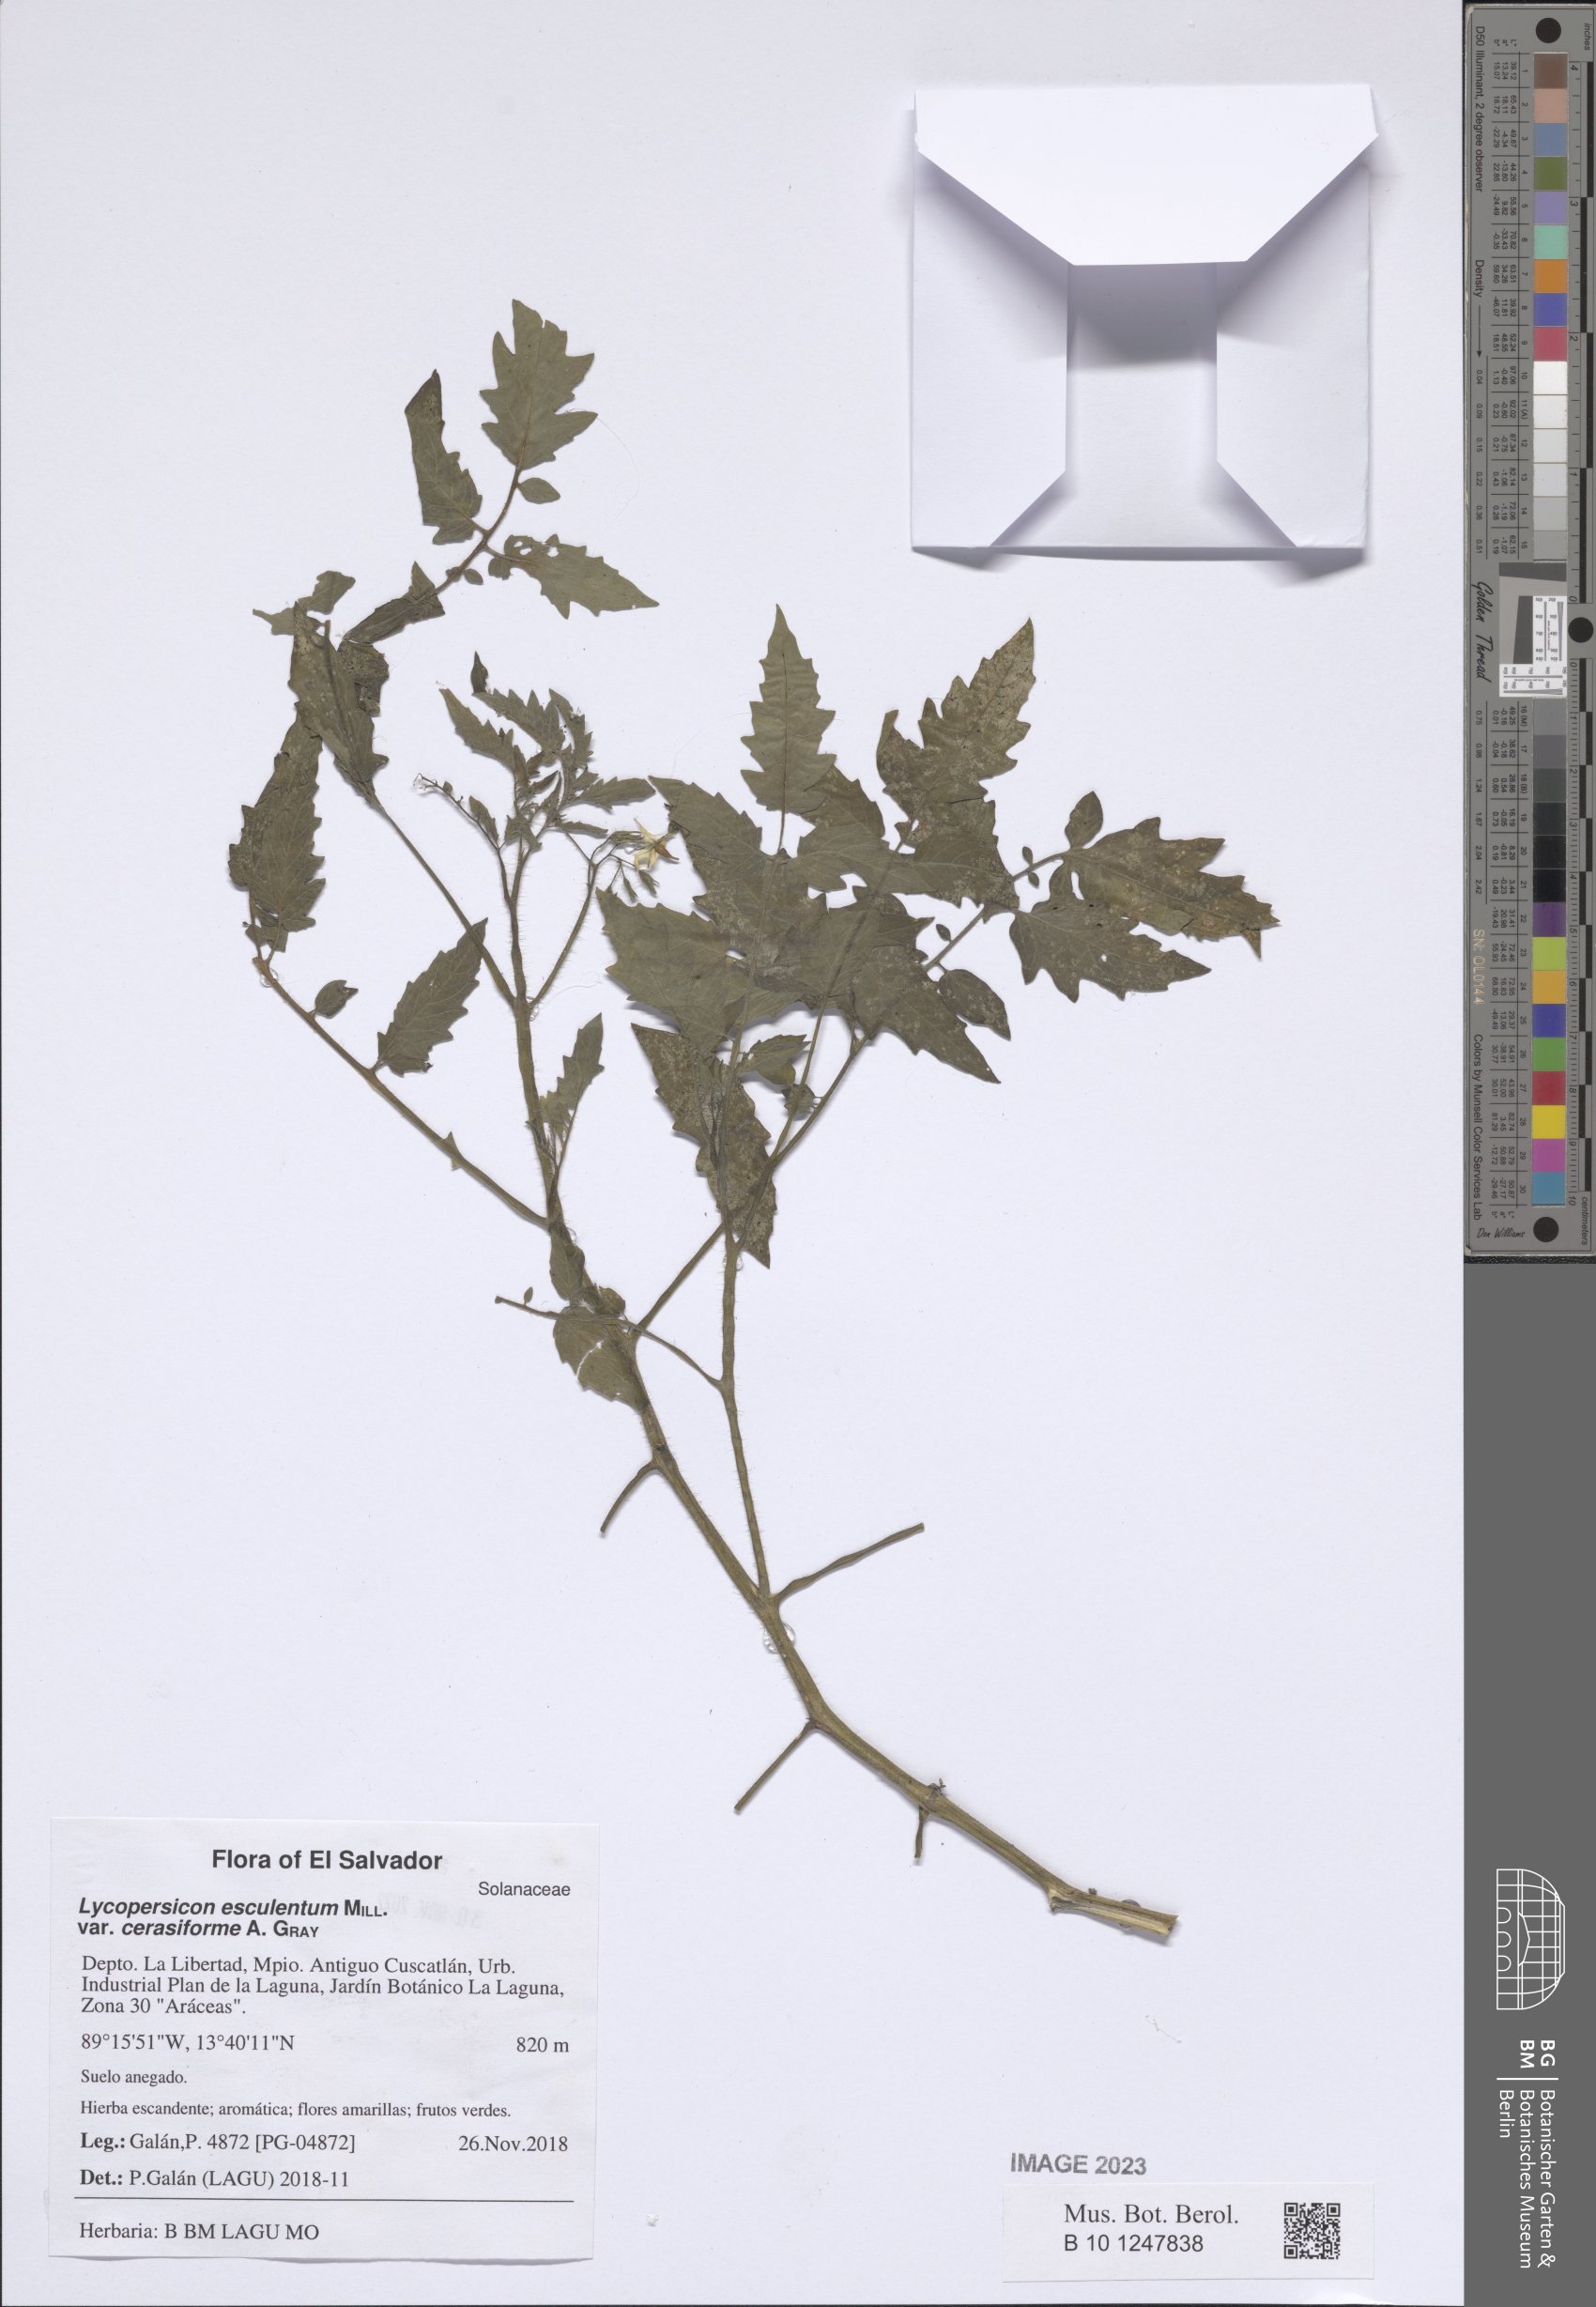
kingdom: Plantae
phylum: Tracheophyta
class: Magnoliopsida
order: Solanales
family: Solanaceae
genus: Solanum
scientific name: Solanum lycopersicum
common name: Garden tomato
